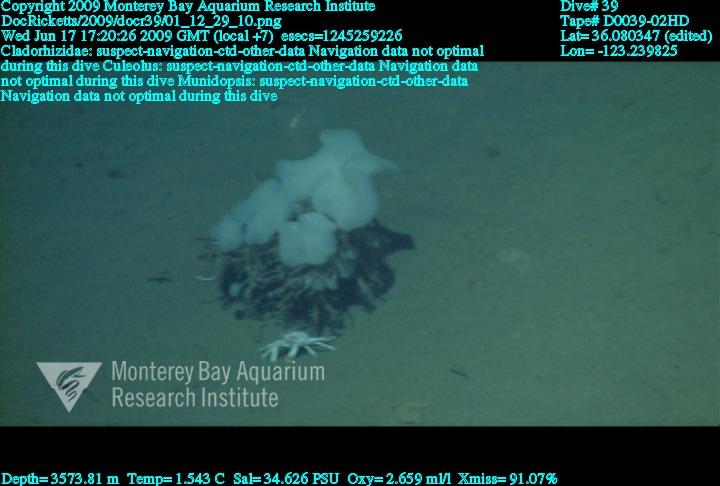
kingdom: Animalia
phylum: Porifera
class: Demospongiae
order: Poecilosclerida
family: Cladorhizidae
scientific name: Cladorhizidae
